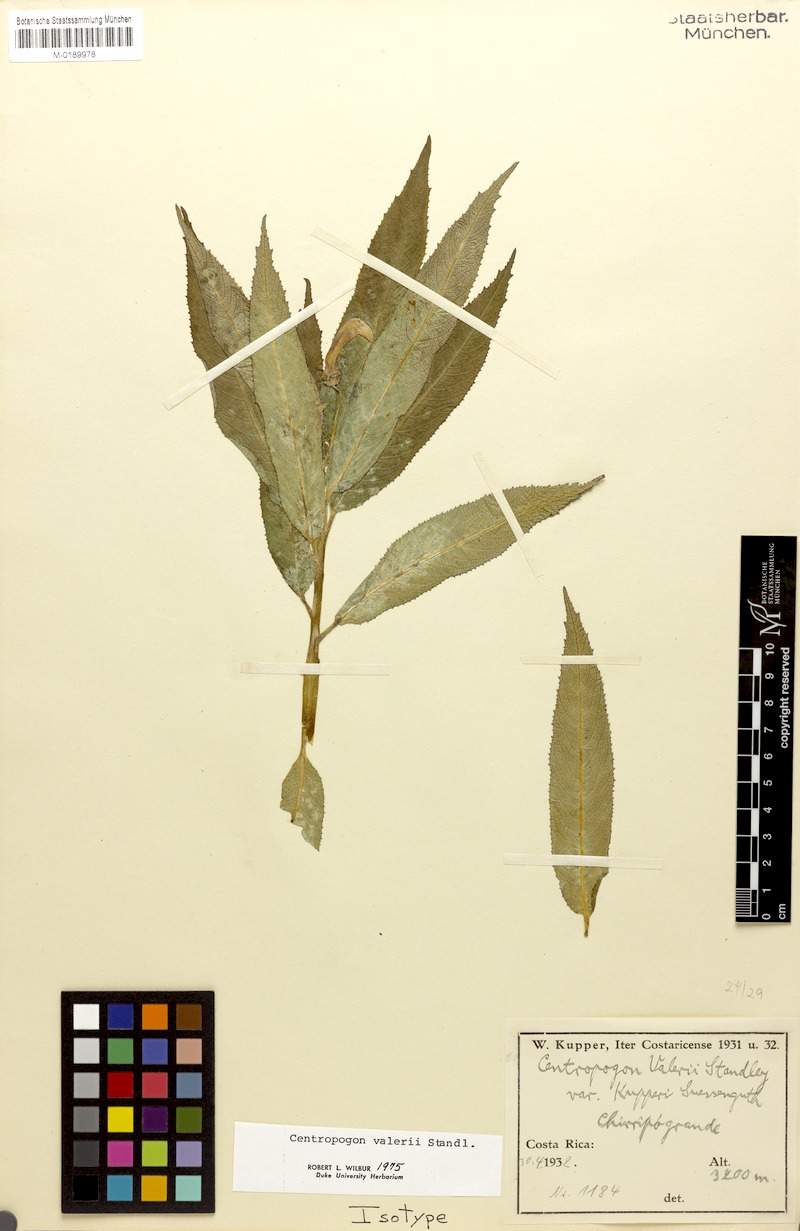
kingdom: Plantae
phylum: Tracheophyta
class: Magnoliopsida
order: Asterales
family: Campanulaceae
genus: Centropogon
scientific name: Centropogon valerii
